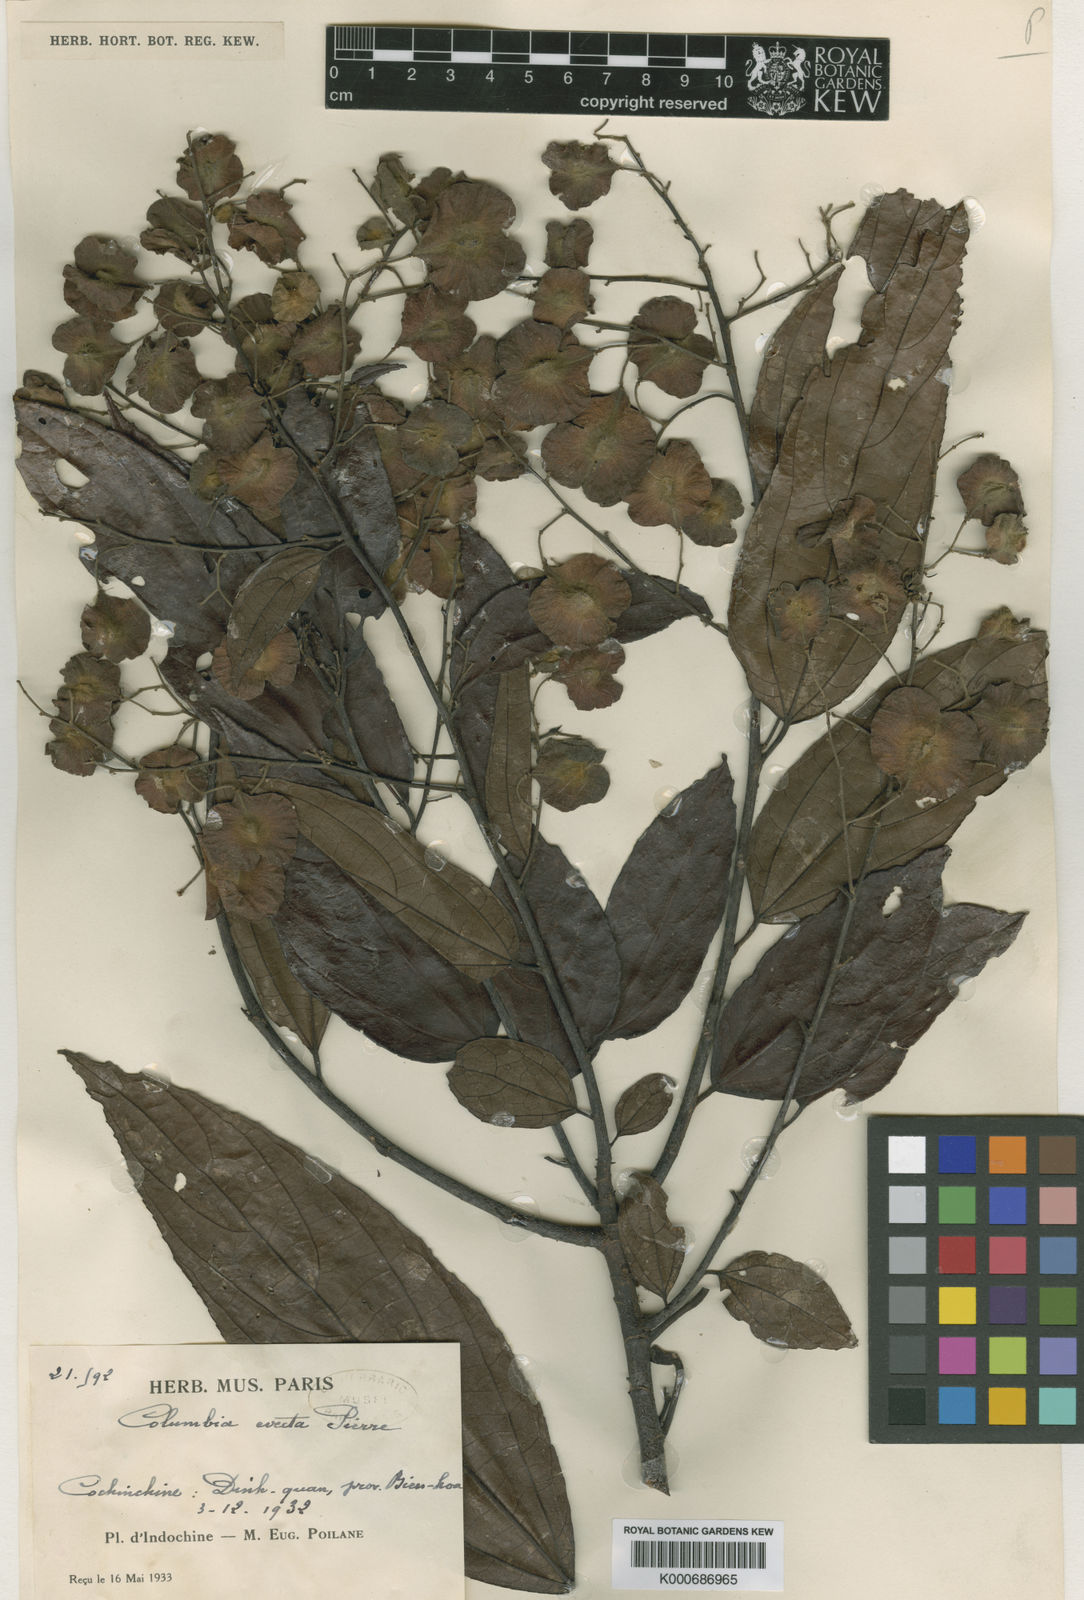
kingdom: Plantae
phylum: Tracheophyta
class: Magnoliopsida
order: Malvales
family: Malvaceae
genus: Colona
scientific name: Colona
